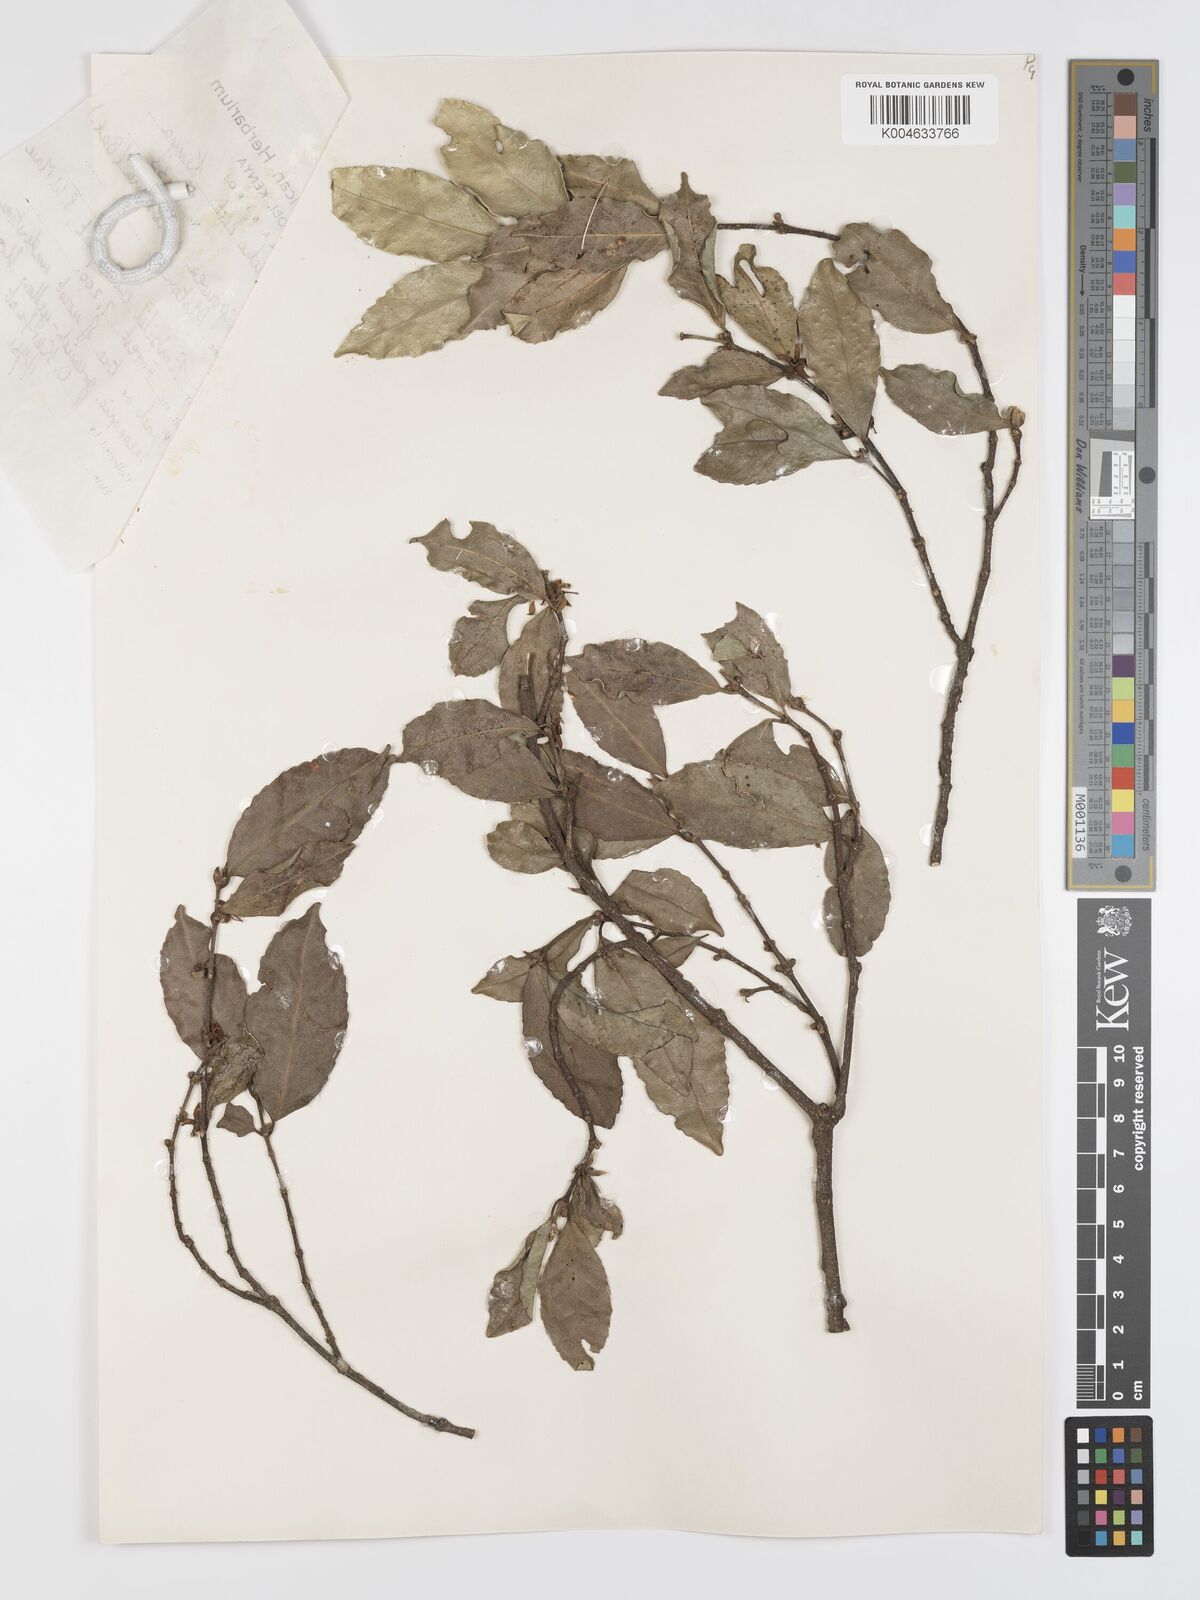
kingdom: Plantae
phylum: Tracheophyta
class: Magnoliopsida
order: Malpighiales
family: Rhizophoraceae
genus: Cassipourea
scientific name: Cassipourea malosana
